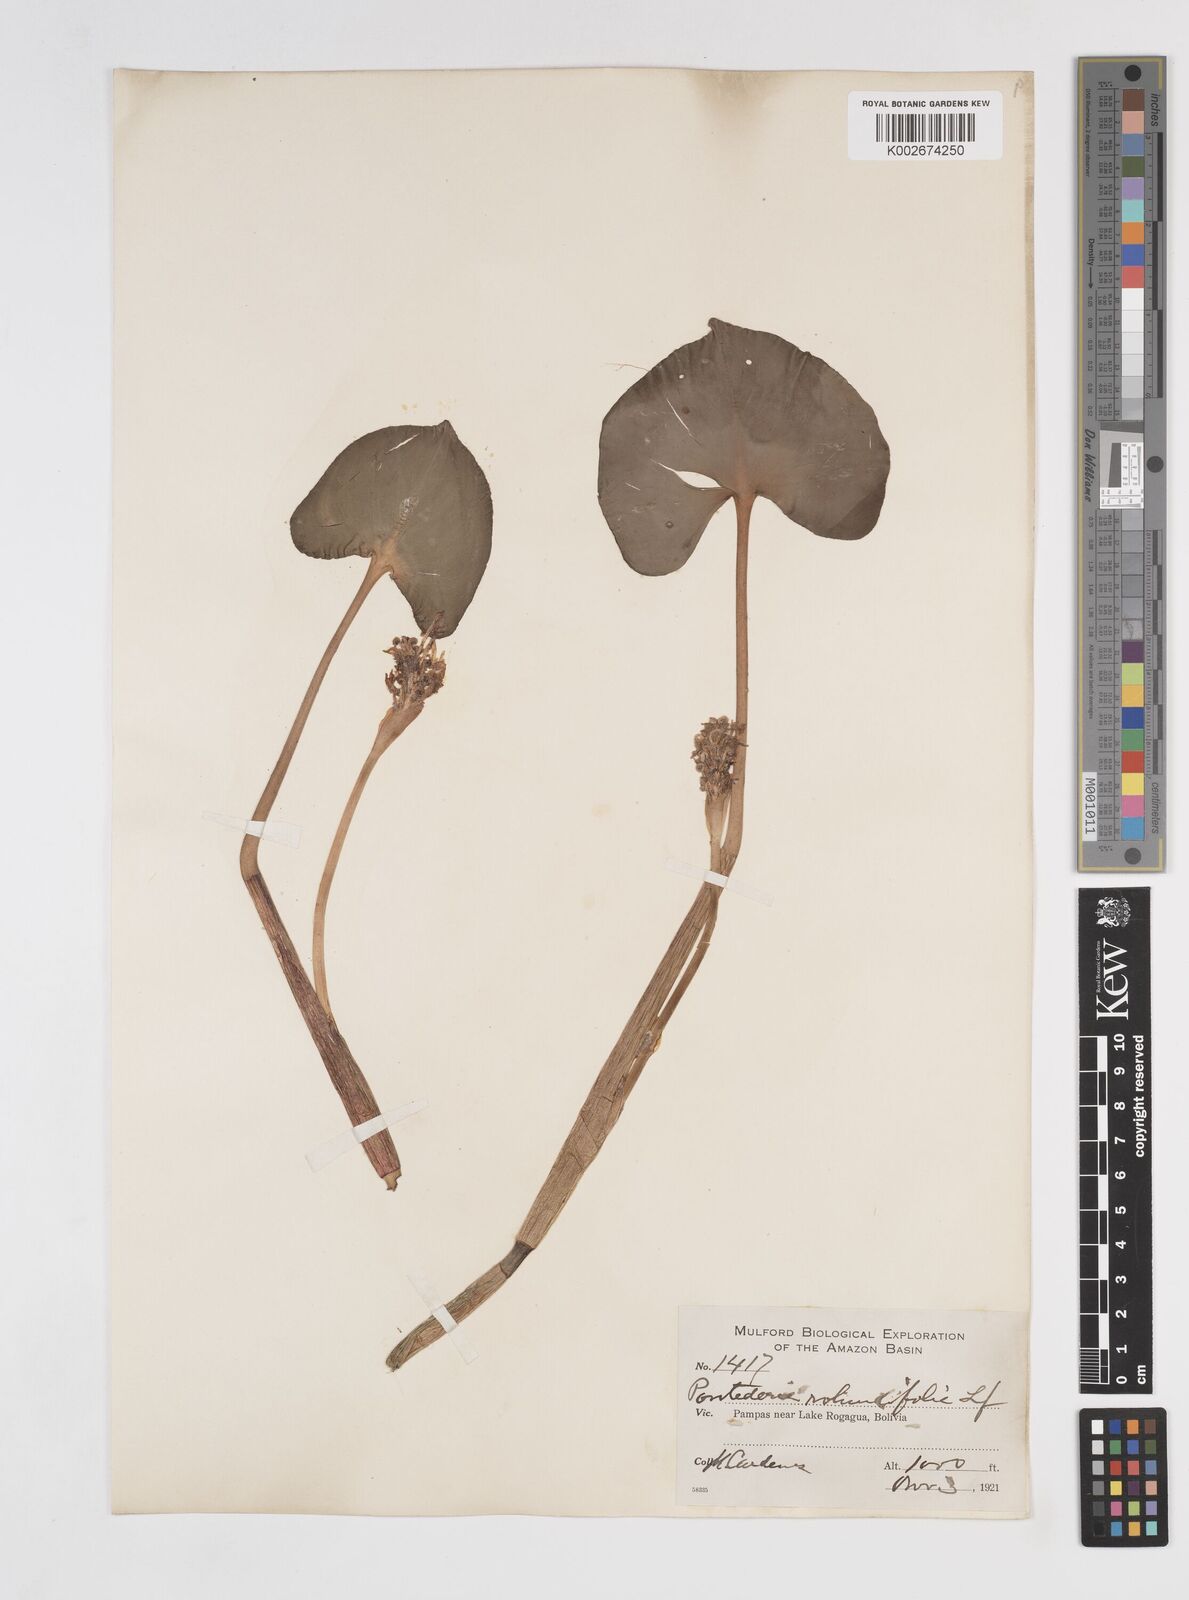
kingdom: Plantae
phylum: Tracheophyta
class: Liliopsida
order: Commelinales
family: Pontederiaceae
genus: Pontederia
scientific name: Pontederia rotundifolia
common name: Tropical pickerel-weed
